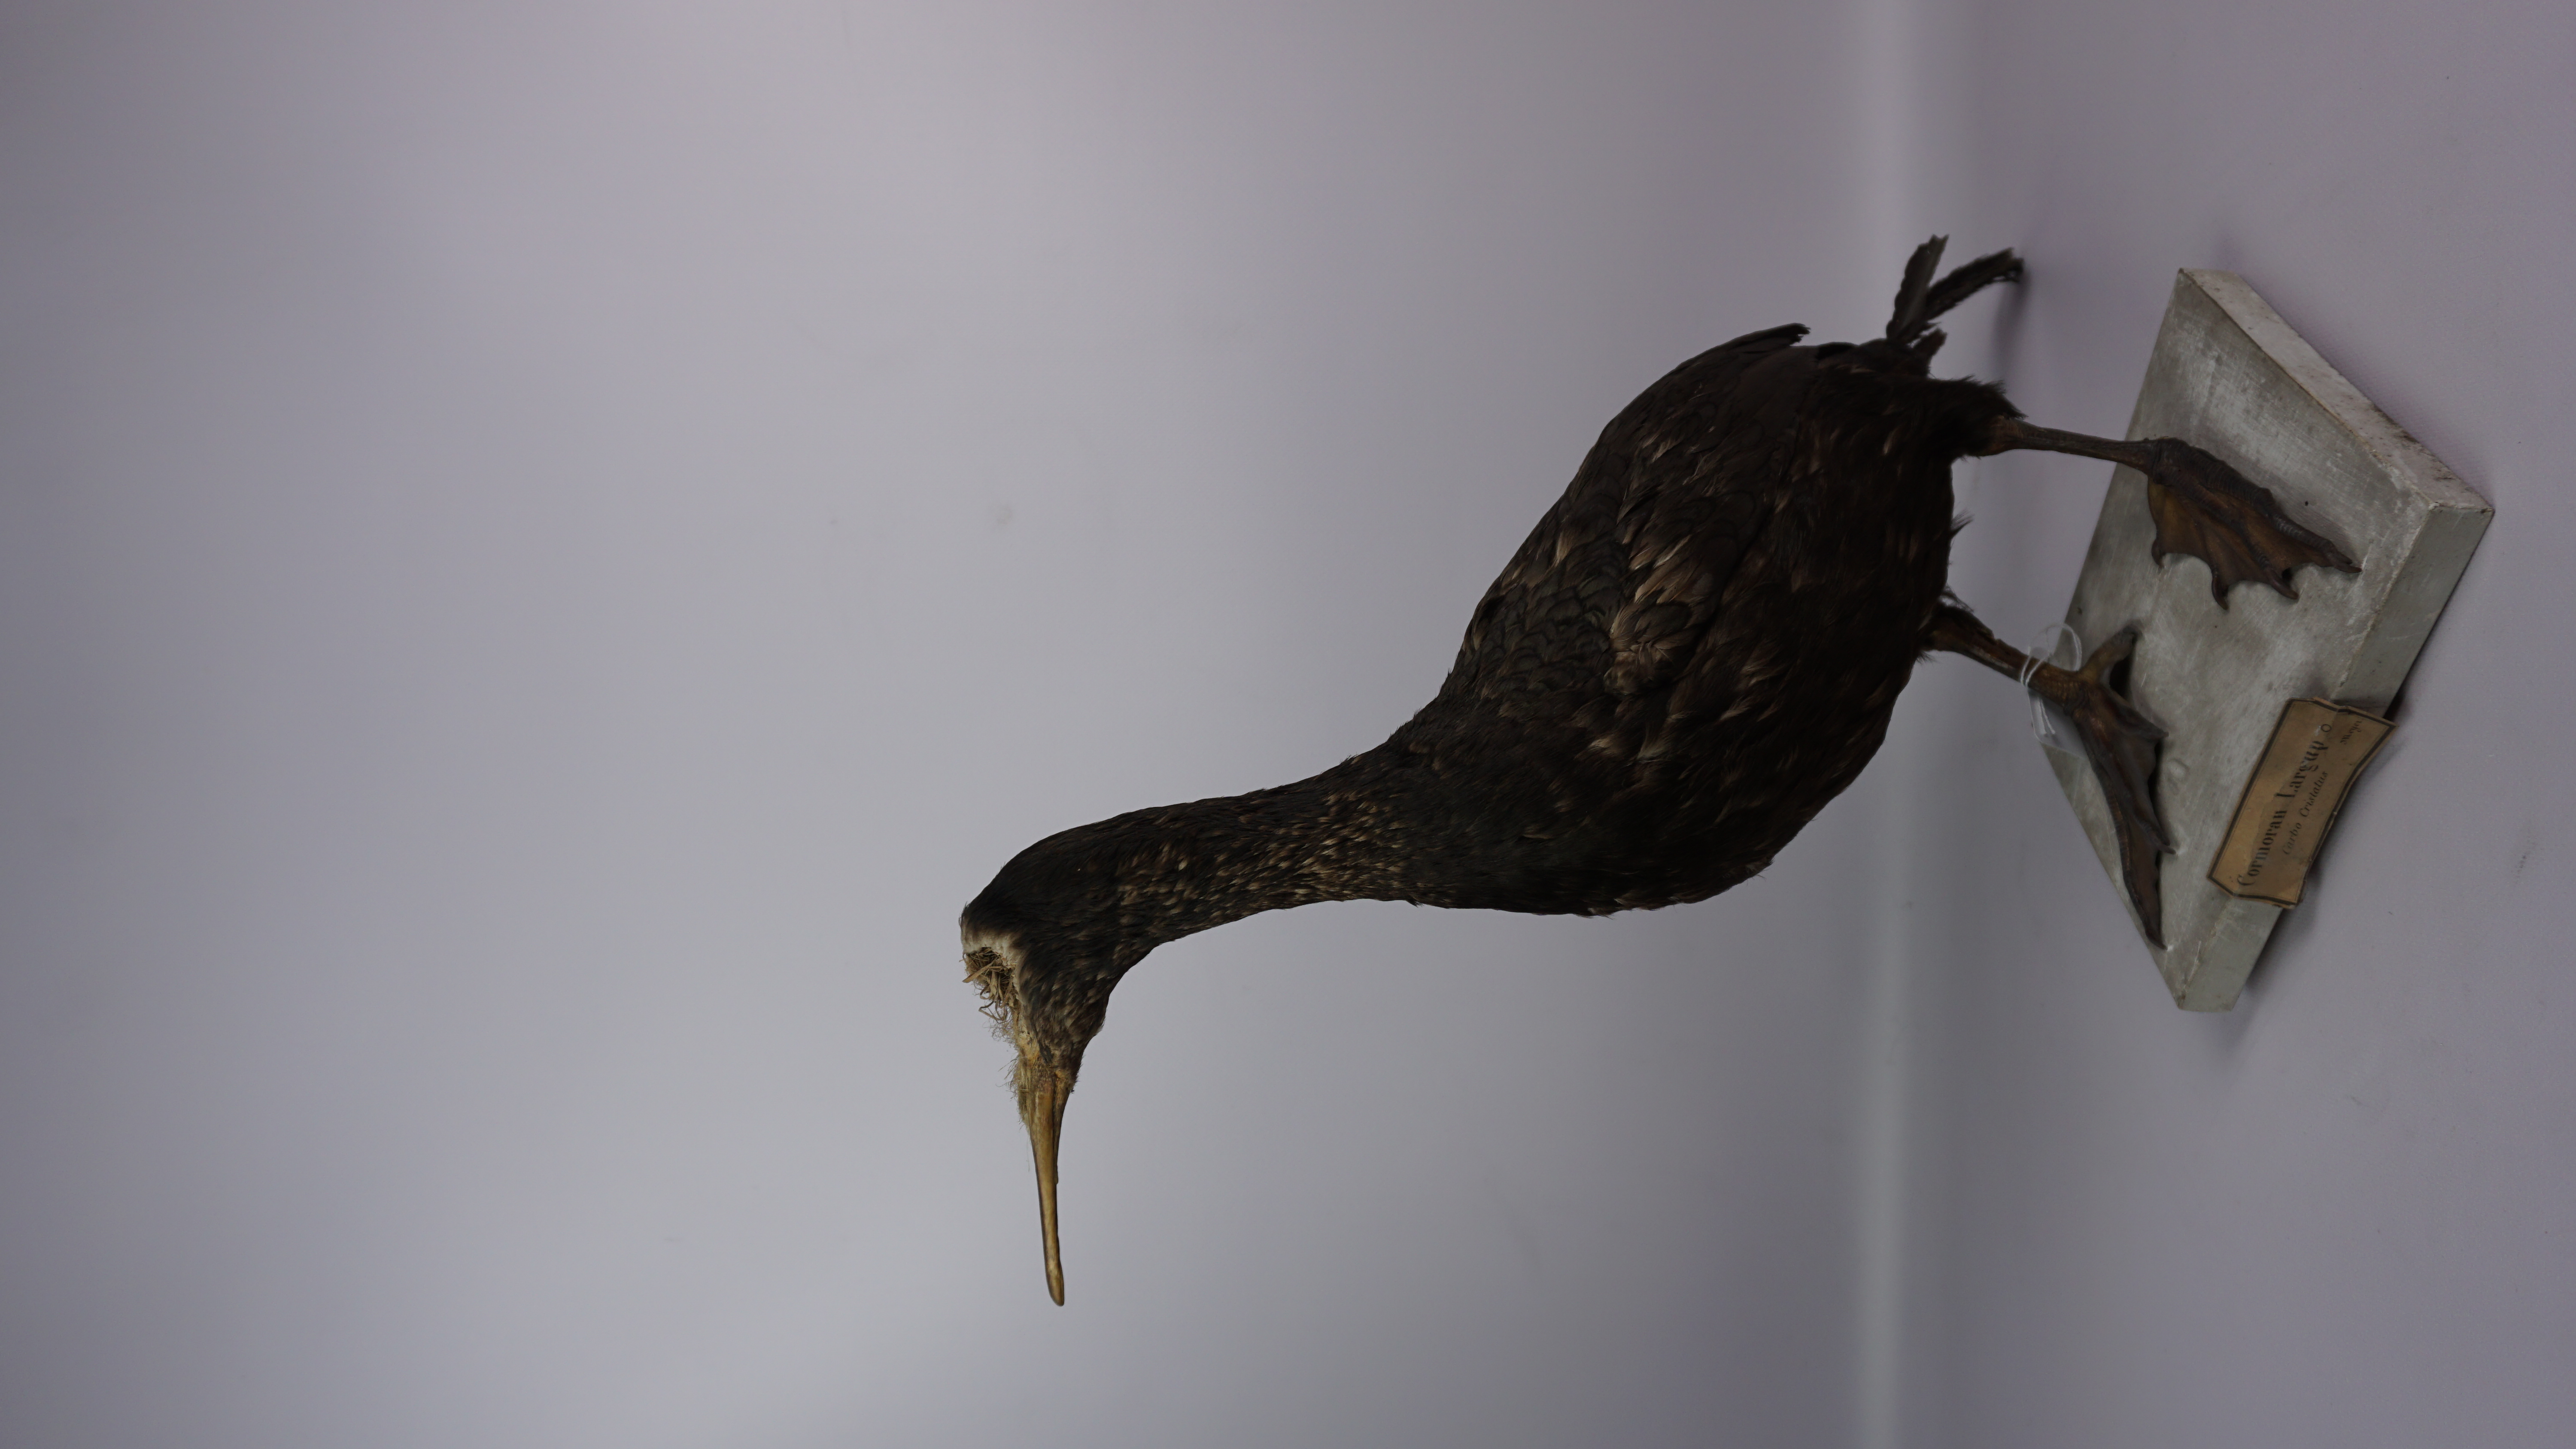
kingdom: Animalia
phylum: Chordata
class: Aves
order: Suliformes
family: Phalacrocoracidae
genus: Phalacrocorax
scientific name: Phalacrocorax aristotelis
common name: European shag
